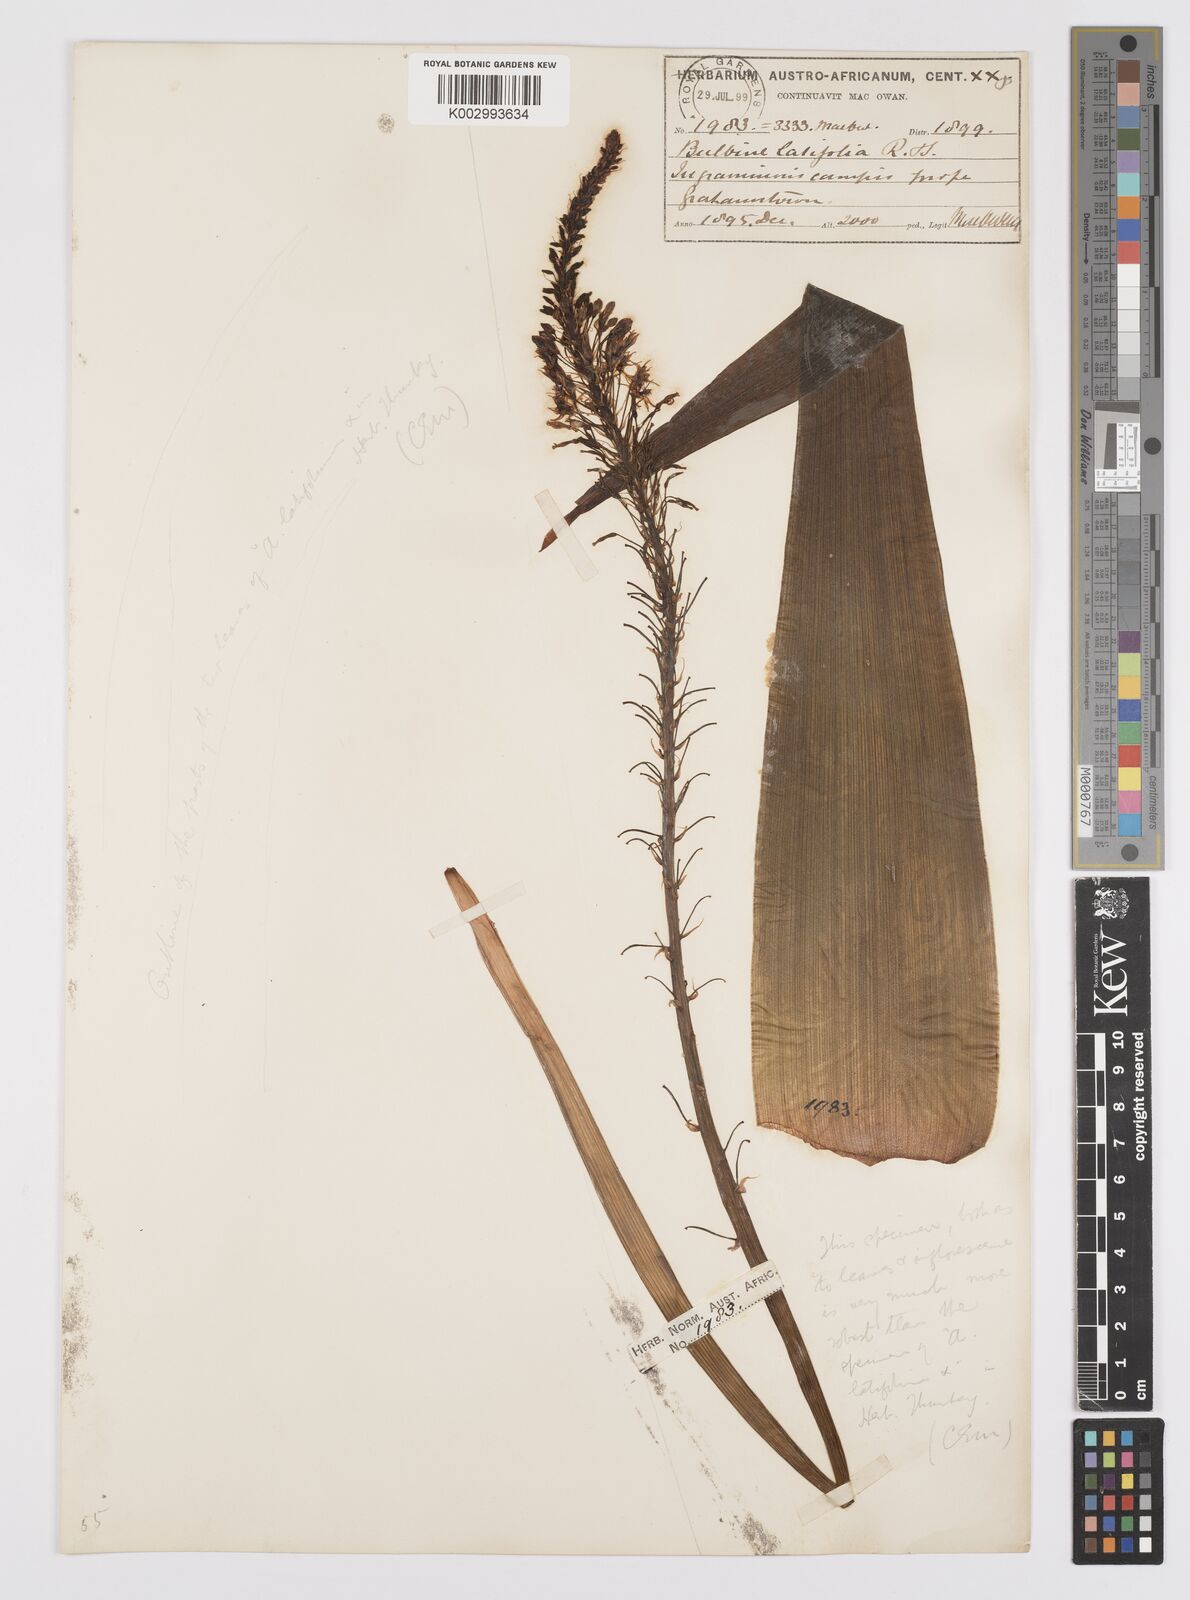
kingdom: Plantae
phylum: Tracheophyta
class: Liliopsida
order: Asparagales
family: Asphodelaceae
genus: Bulbine
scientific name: Bulbine latifolia
